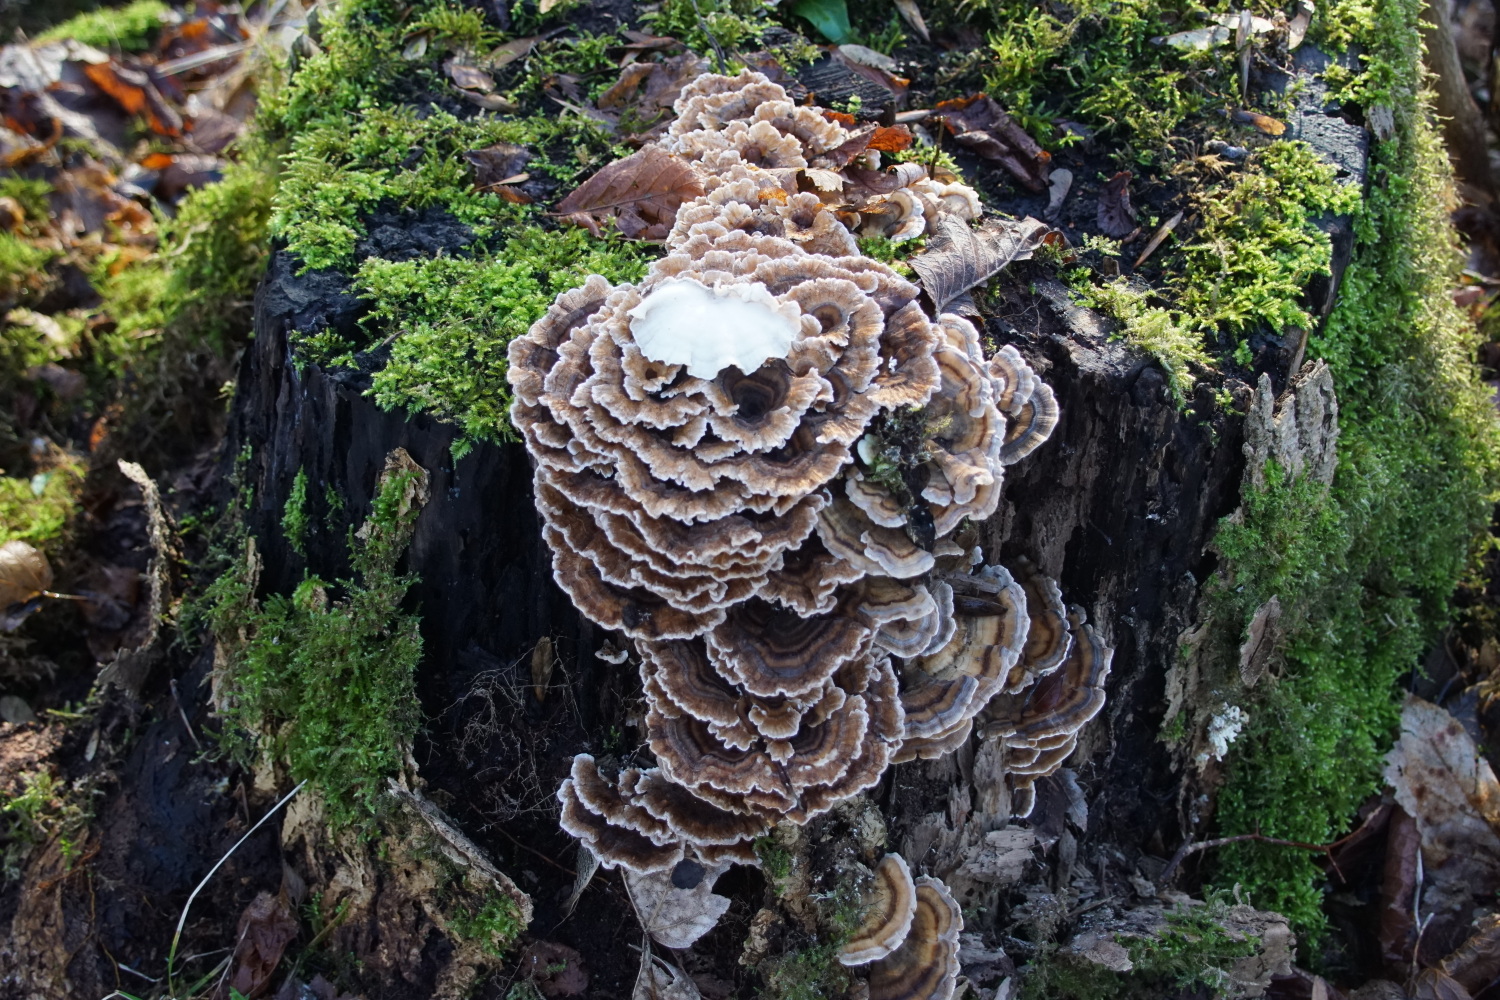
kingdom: Fungi
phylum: Basidiomycota
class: Agaricomycetes
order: Polyporales
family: Polyporaceae
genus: Trametes
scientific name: Trametes versicolor
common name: broget læderporesvamp
